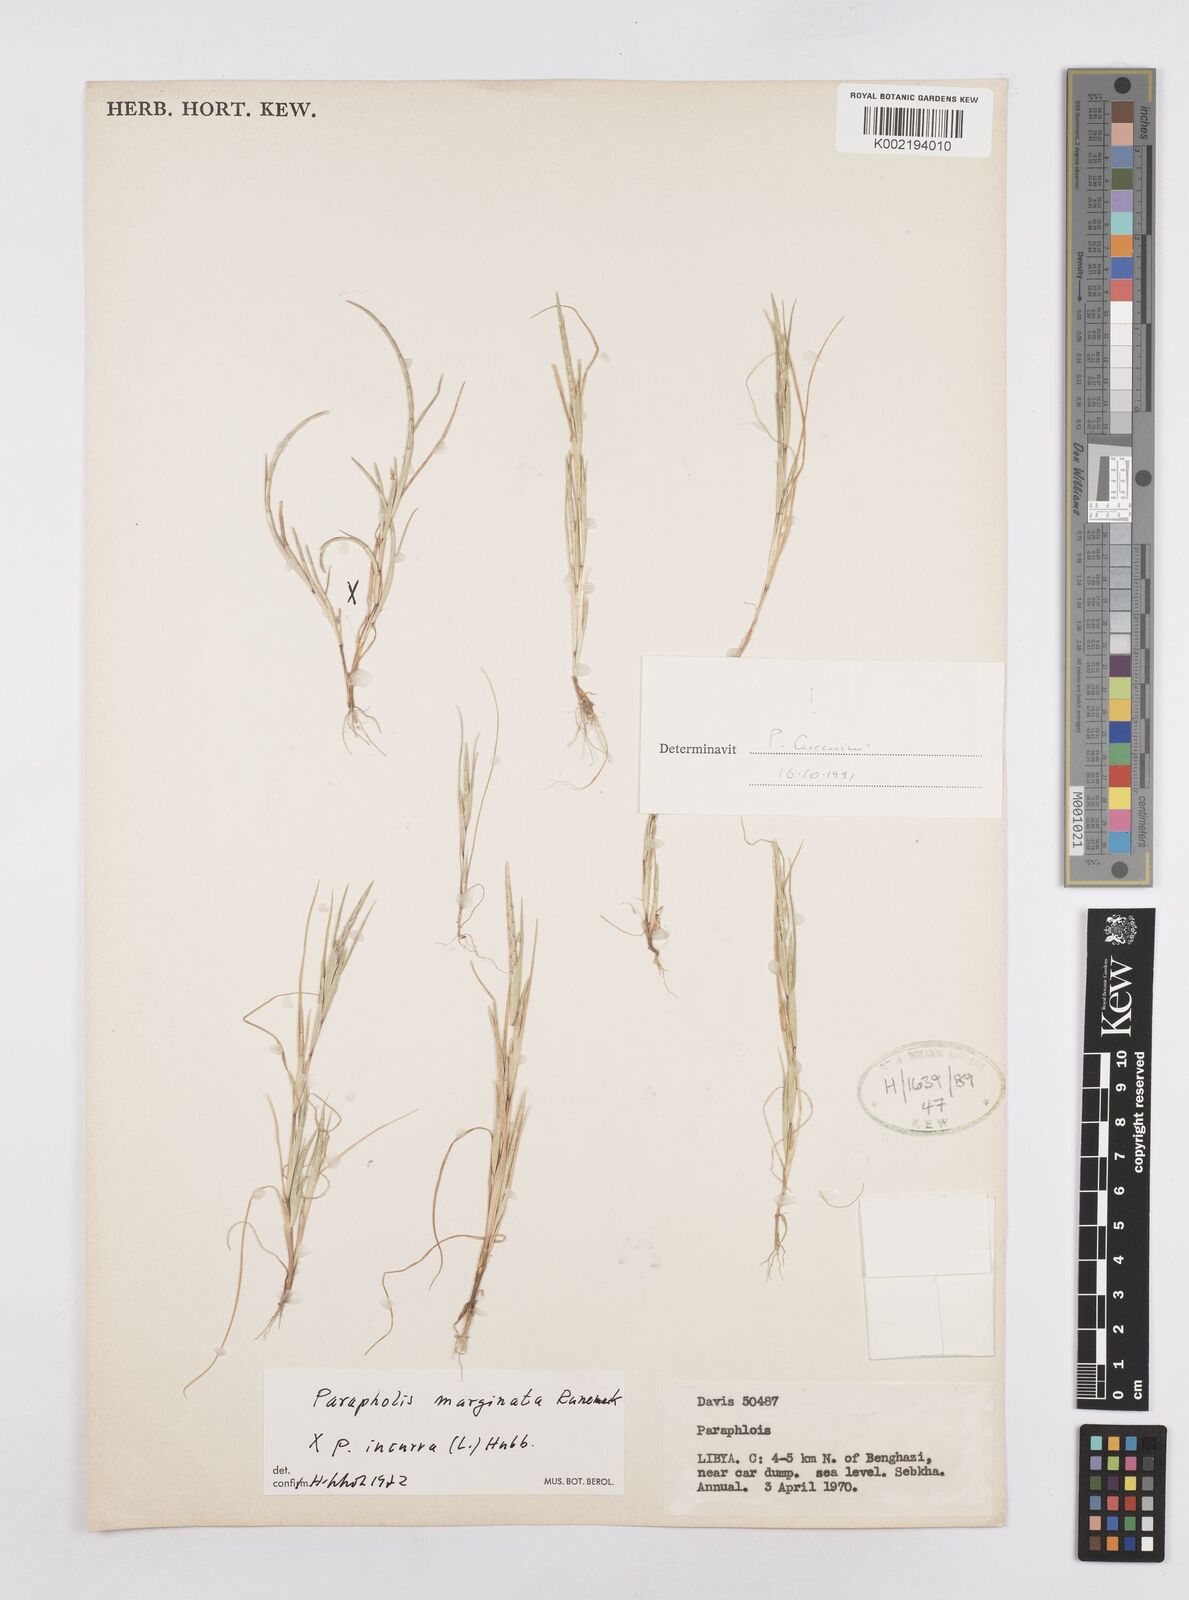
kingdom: Plantae
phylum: Tracheophyta
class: Liliopsida
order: Poales
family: Poaceae
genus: Parapholis
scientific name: Parapholis marginata
